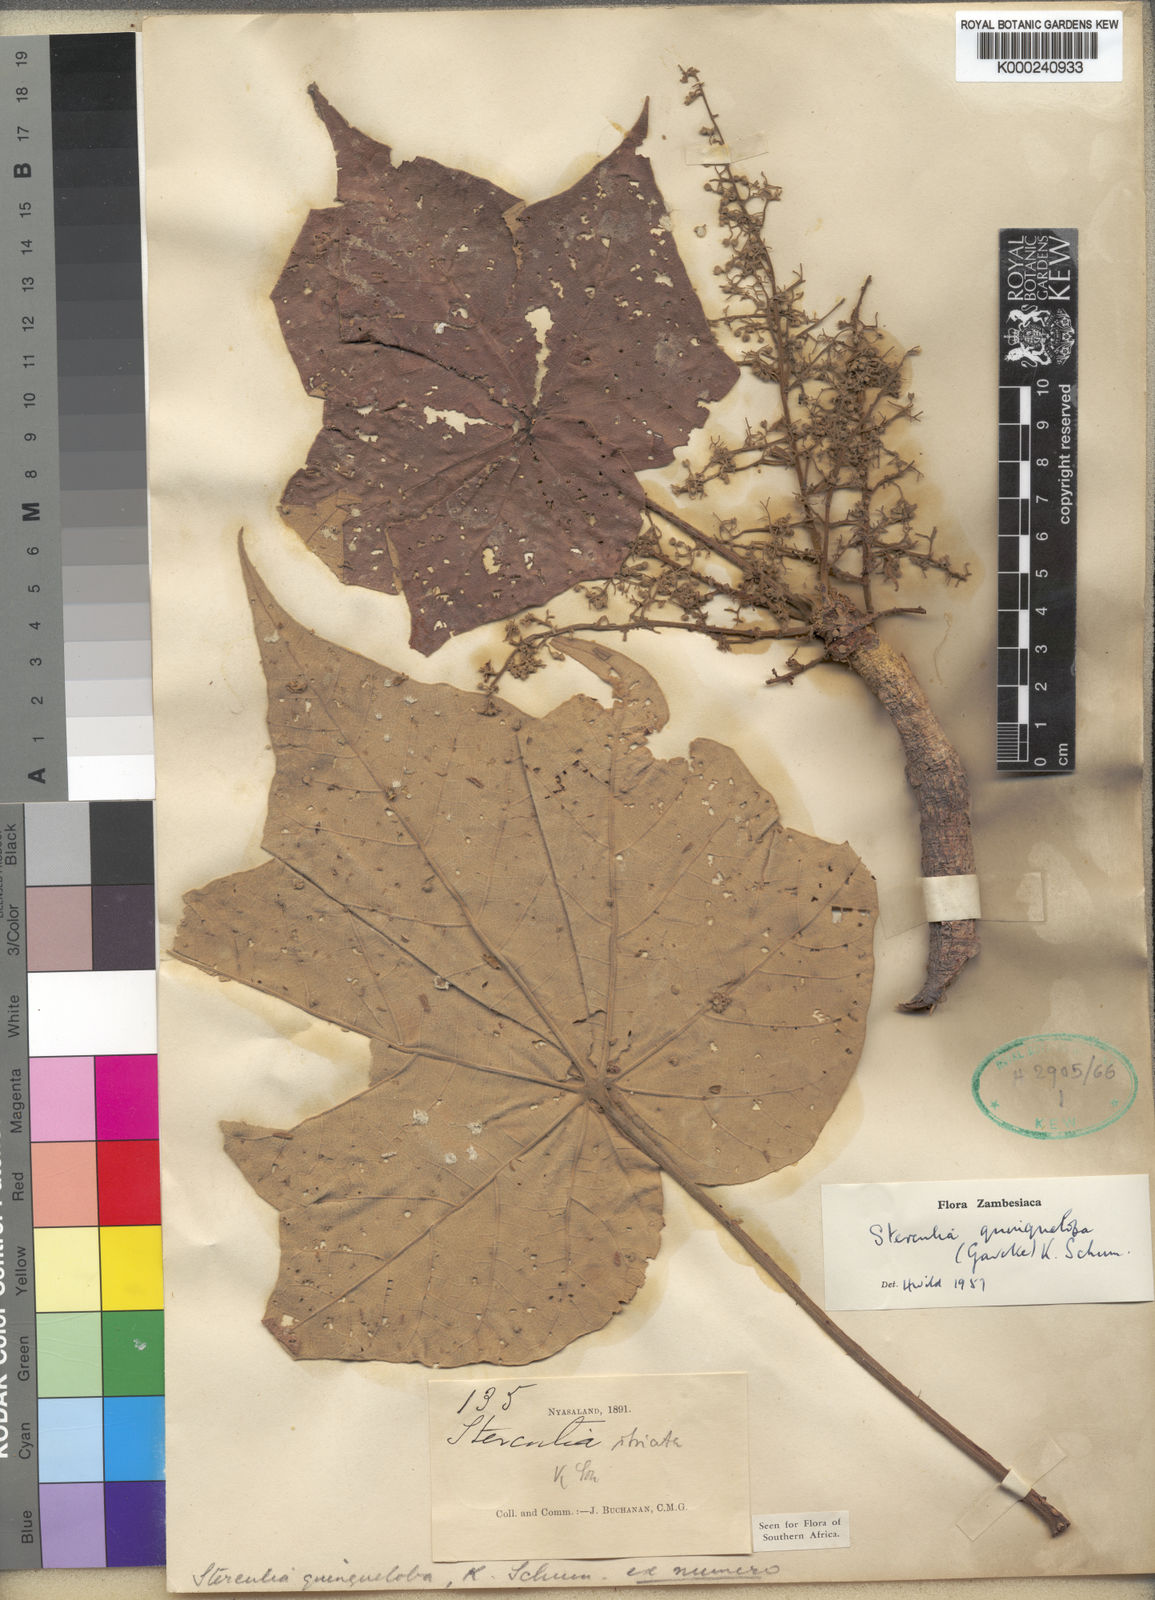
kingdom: Plantae
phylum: Tracheophyta
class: Magnoliopsida
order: Malvales
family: Malvaceae
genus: Sterculia
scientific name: Sterculia quinqueloba
